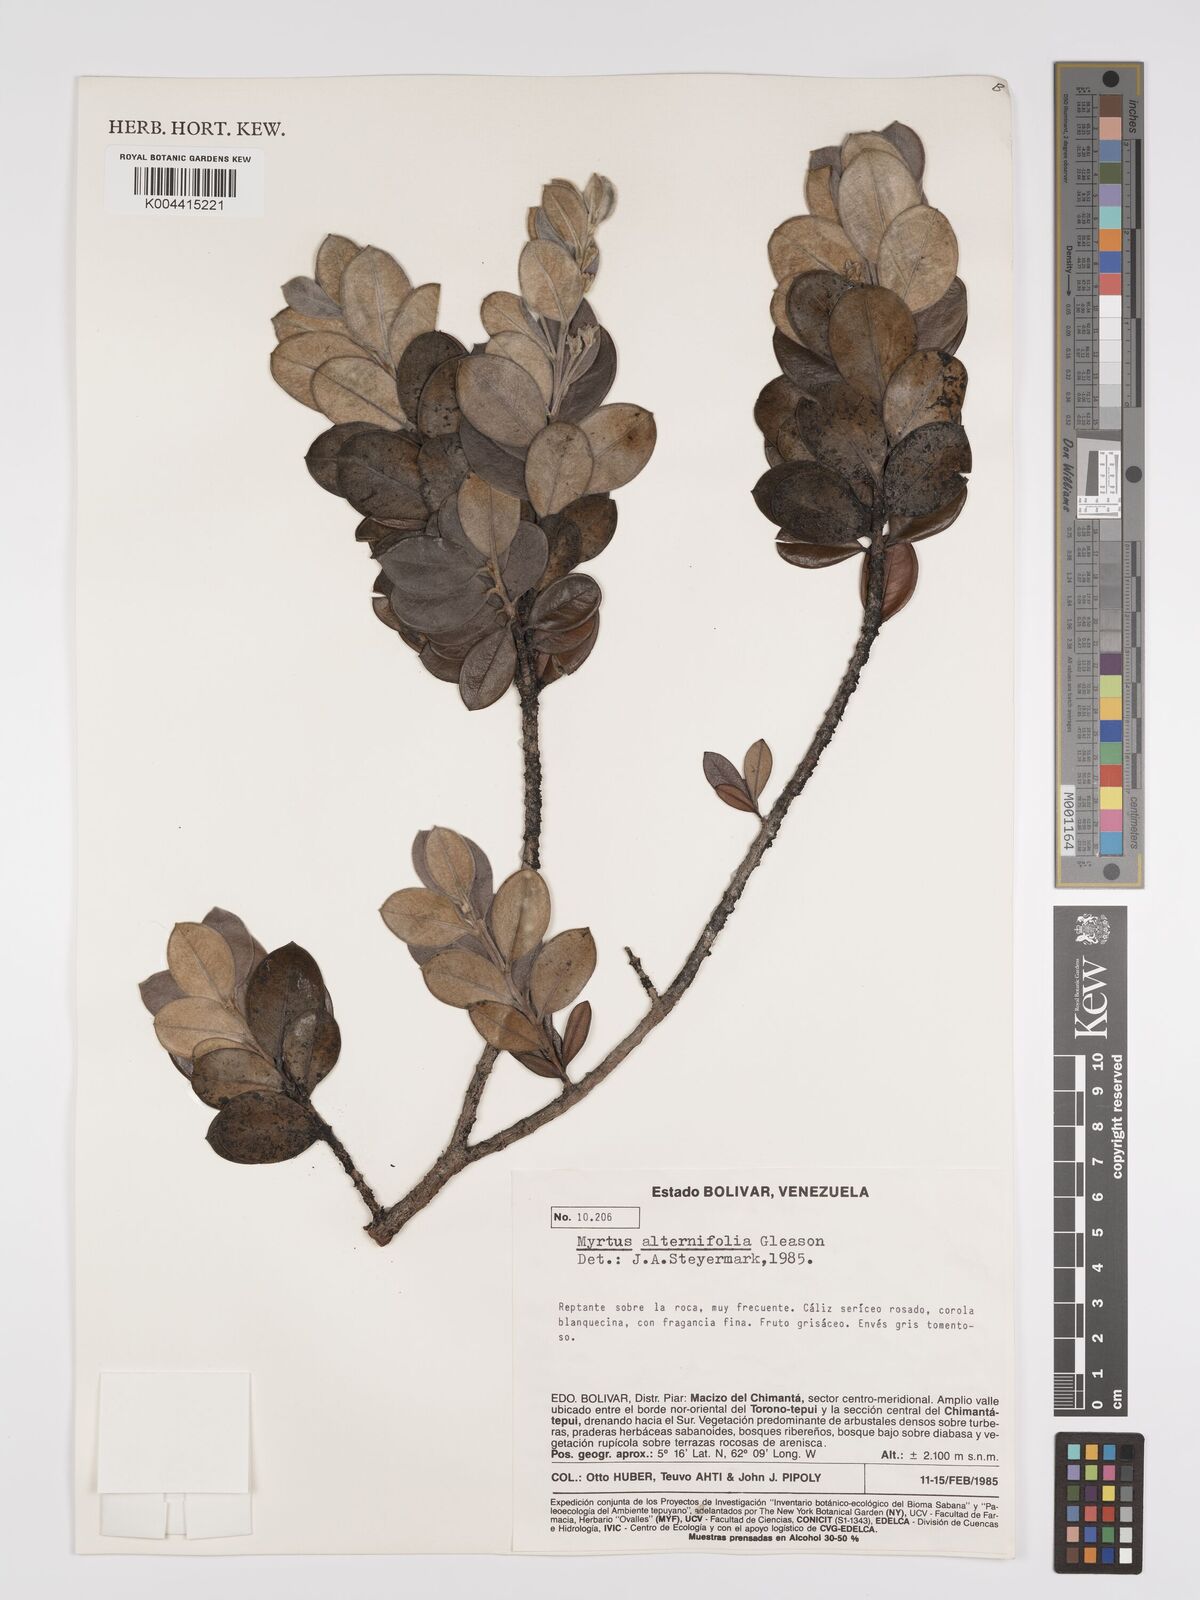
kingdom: Plantae
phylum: Tracheophyta
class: Magnoliopsida
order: Myrtales
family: Myrtaceae
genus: Calycolpus
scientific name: Calycolpus alternifolius
